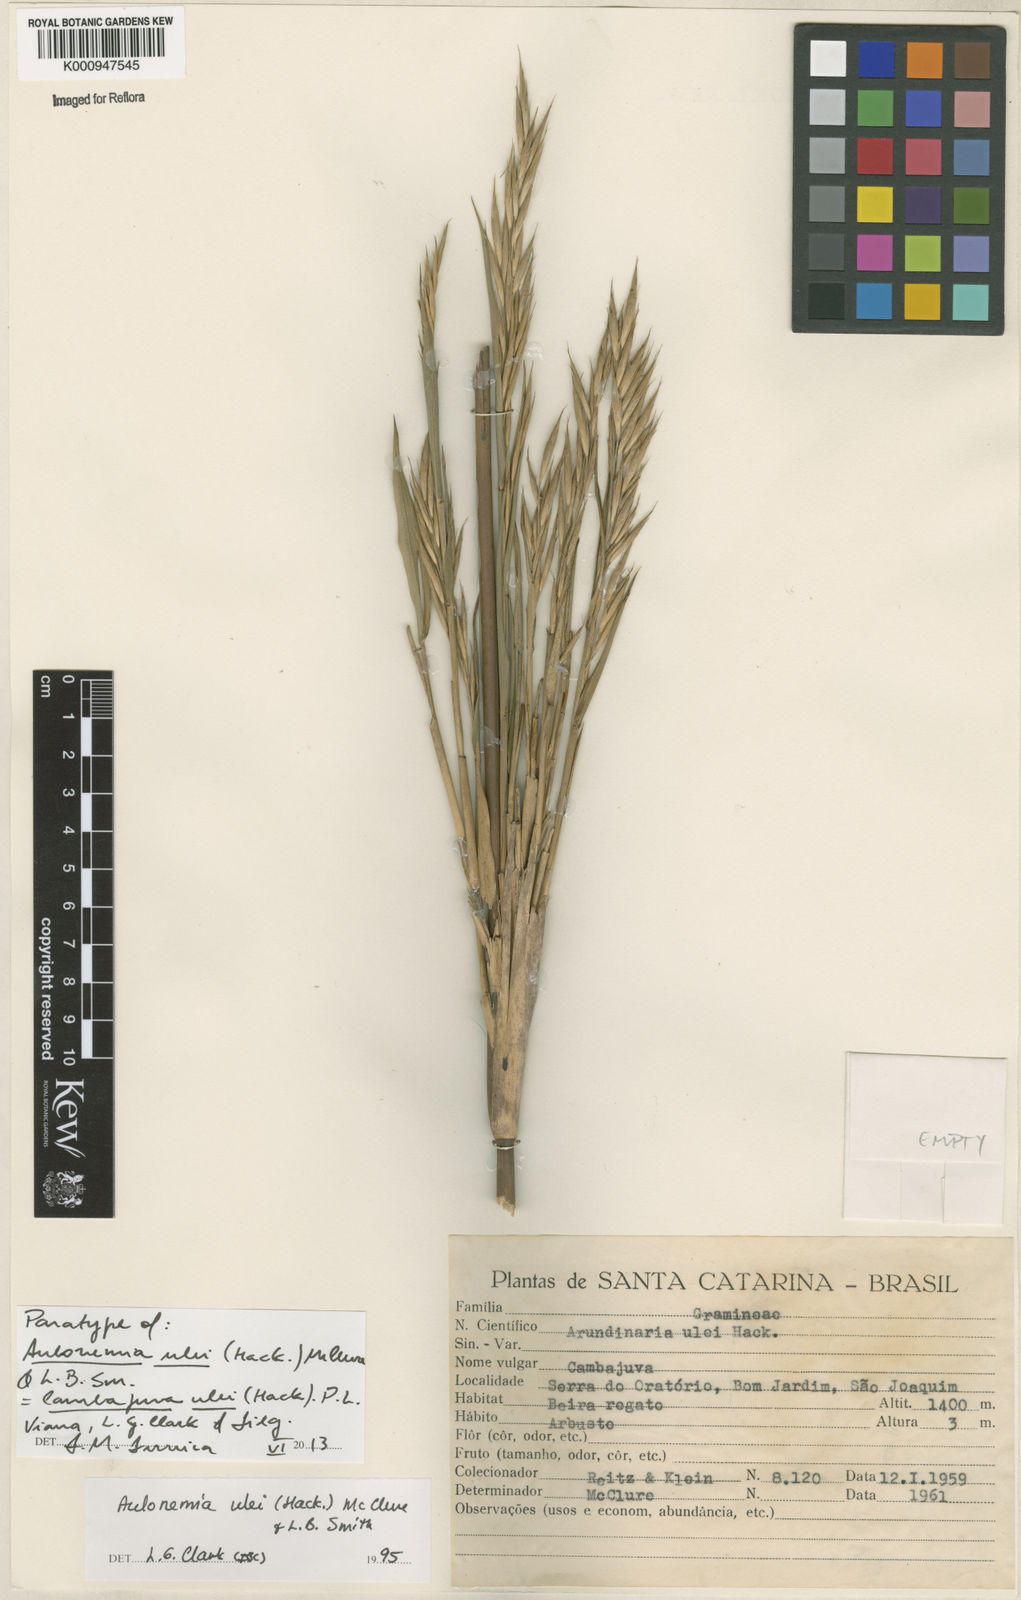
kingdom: Plantae
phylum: Tracheophyta
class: Liliopsida
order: Poales
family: Poaceae
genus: Cambajuva
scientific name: Cambajuva ulei
